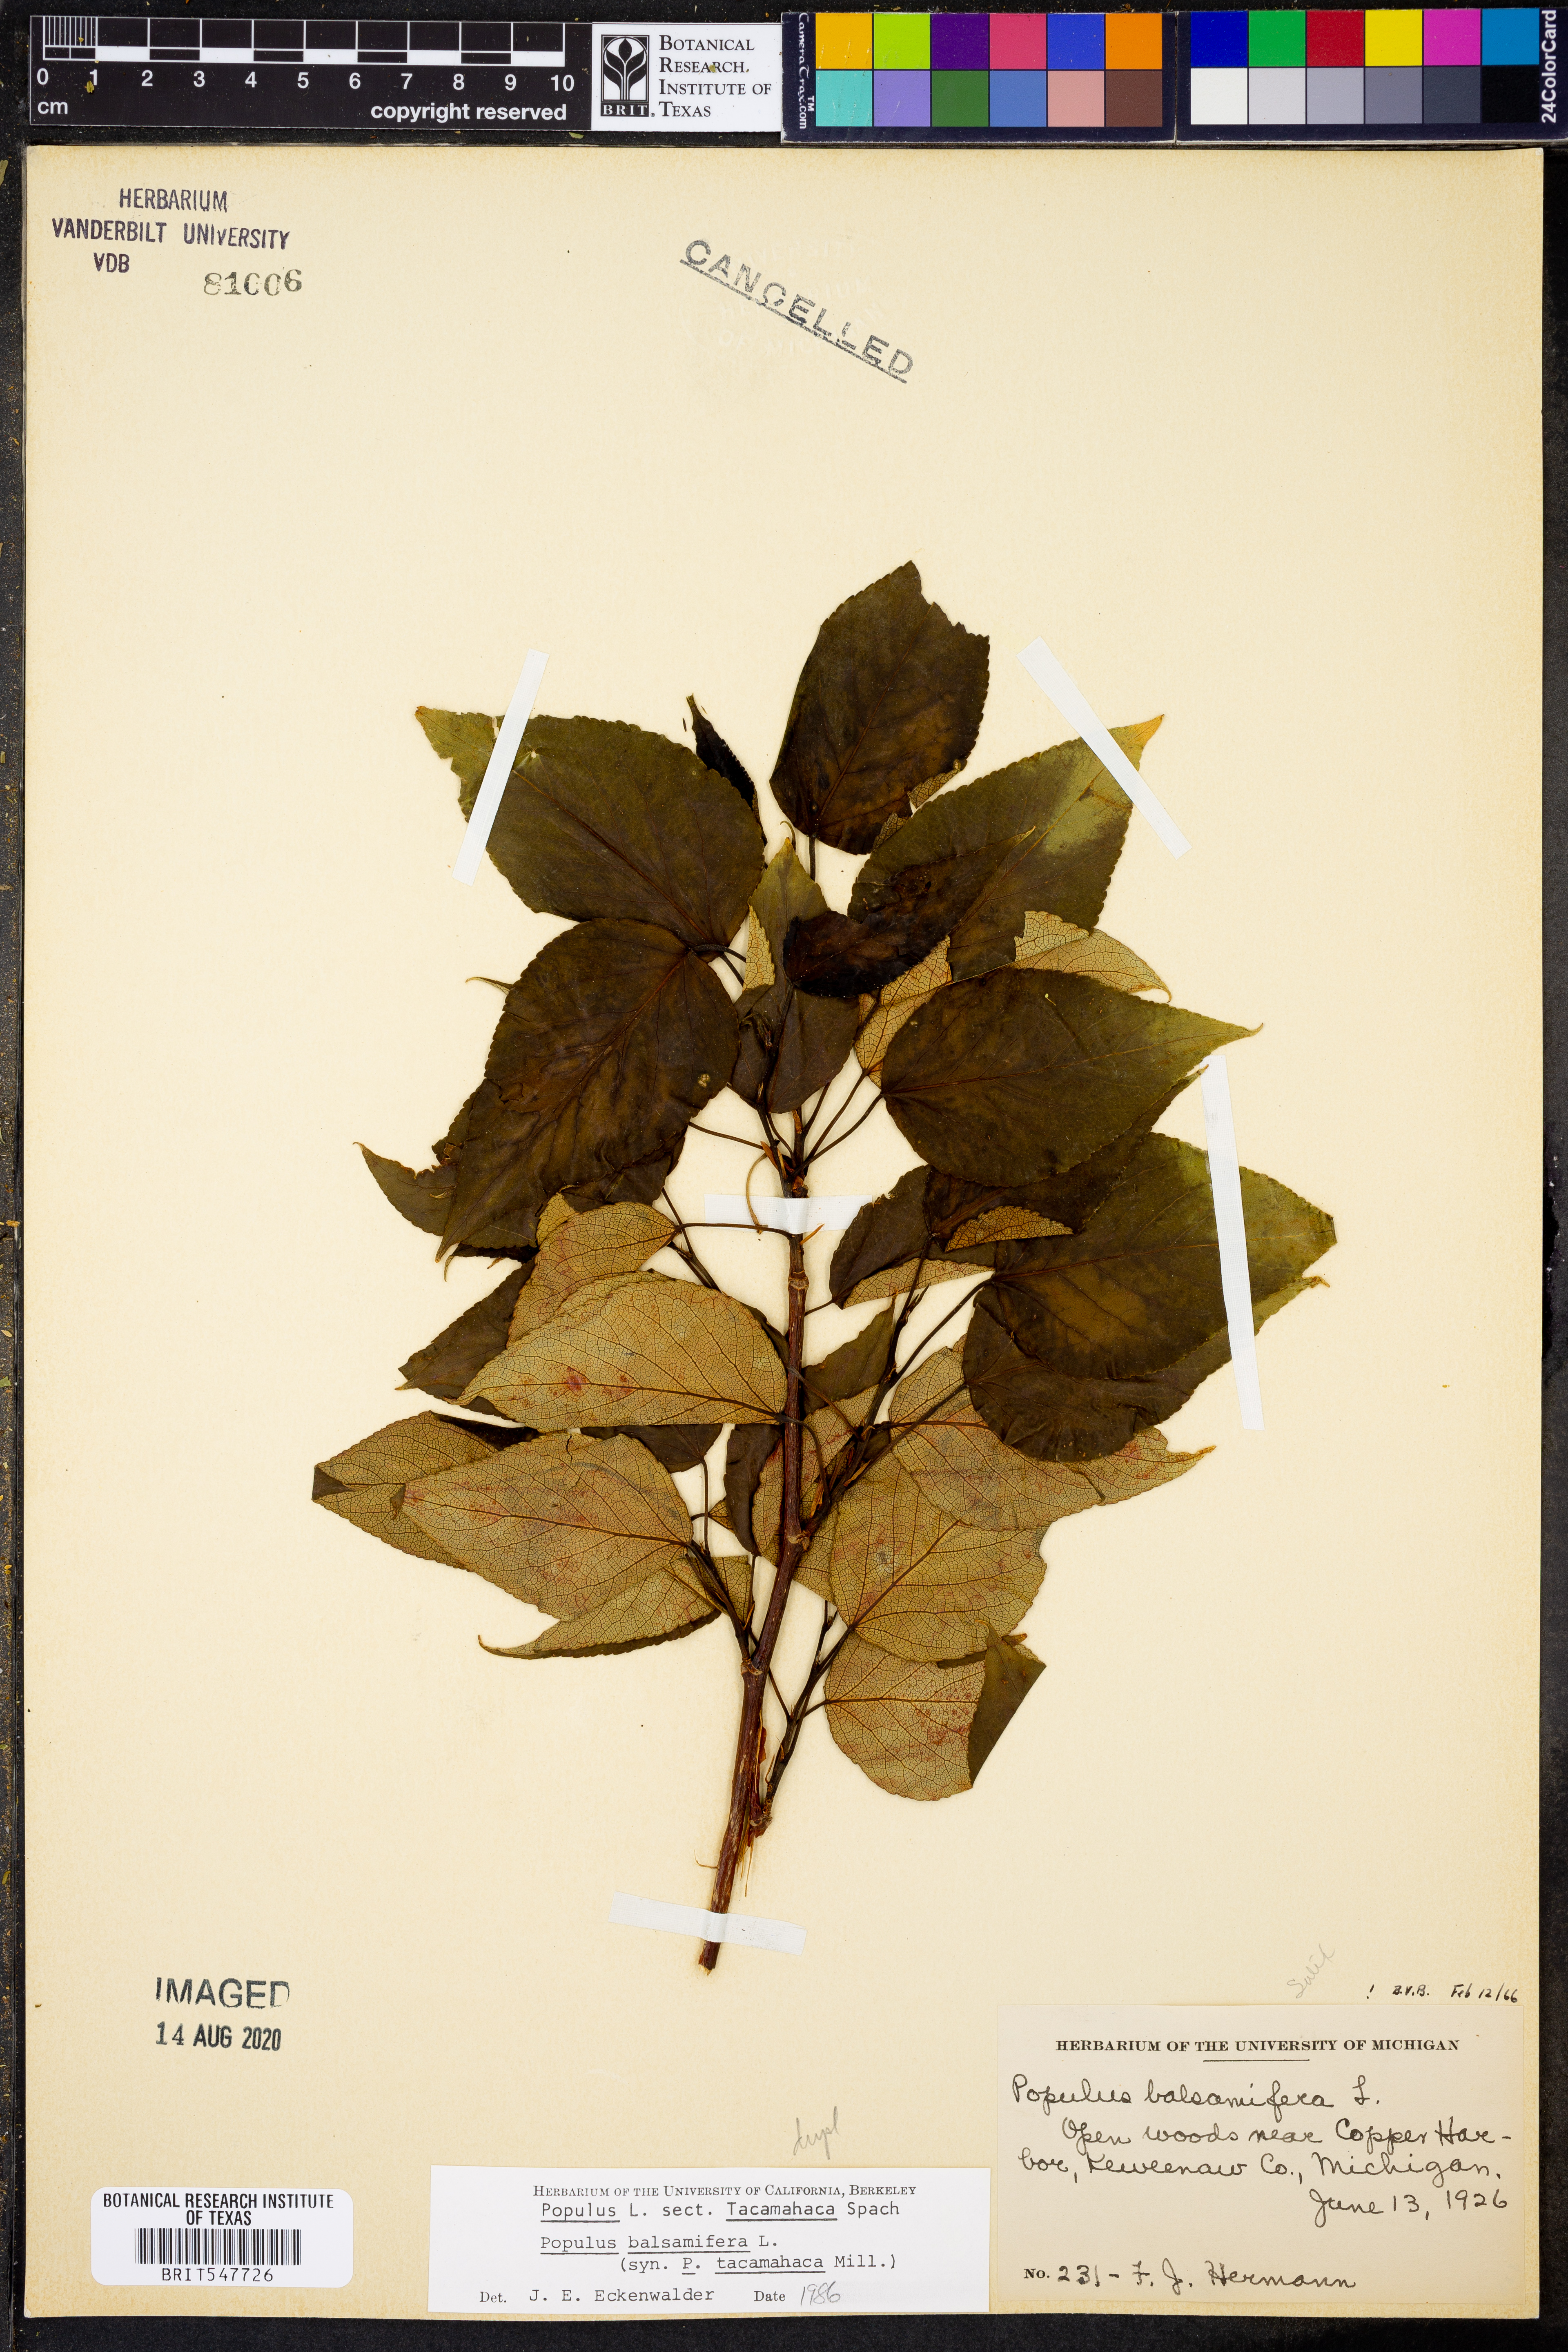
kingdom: Plantae
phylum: Tracheophyta
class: Magnoliopsida
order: Malpighiales
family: Salicaceae
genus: Populus
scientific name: Populus balsamifera
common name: Balsam poplar
